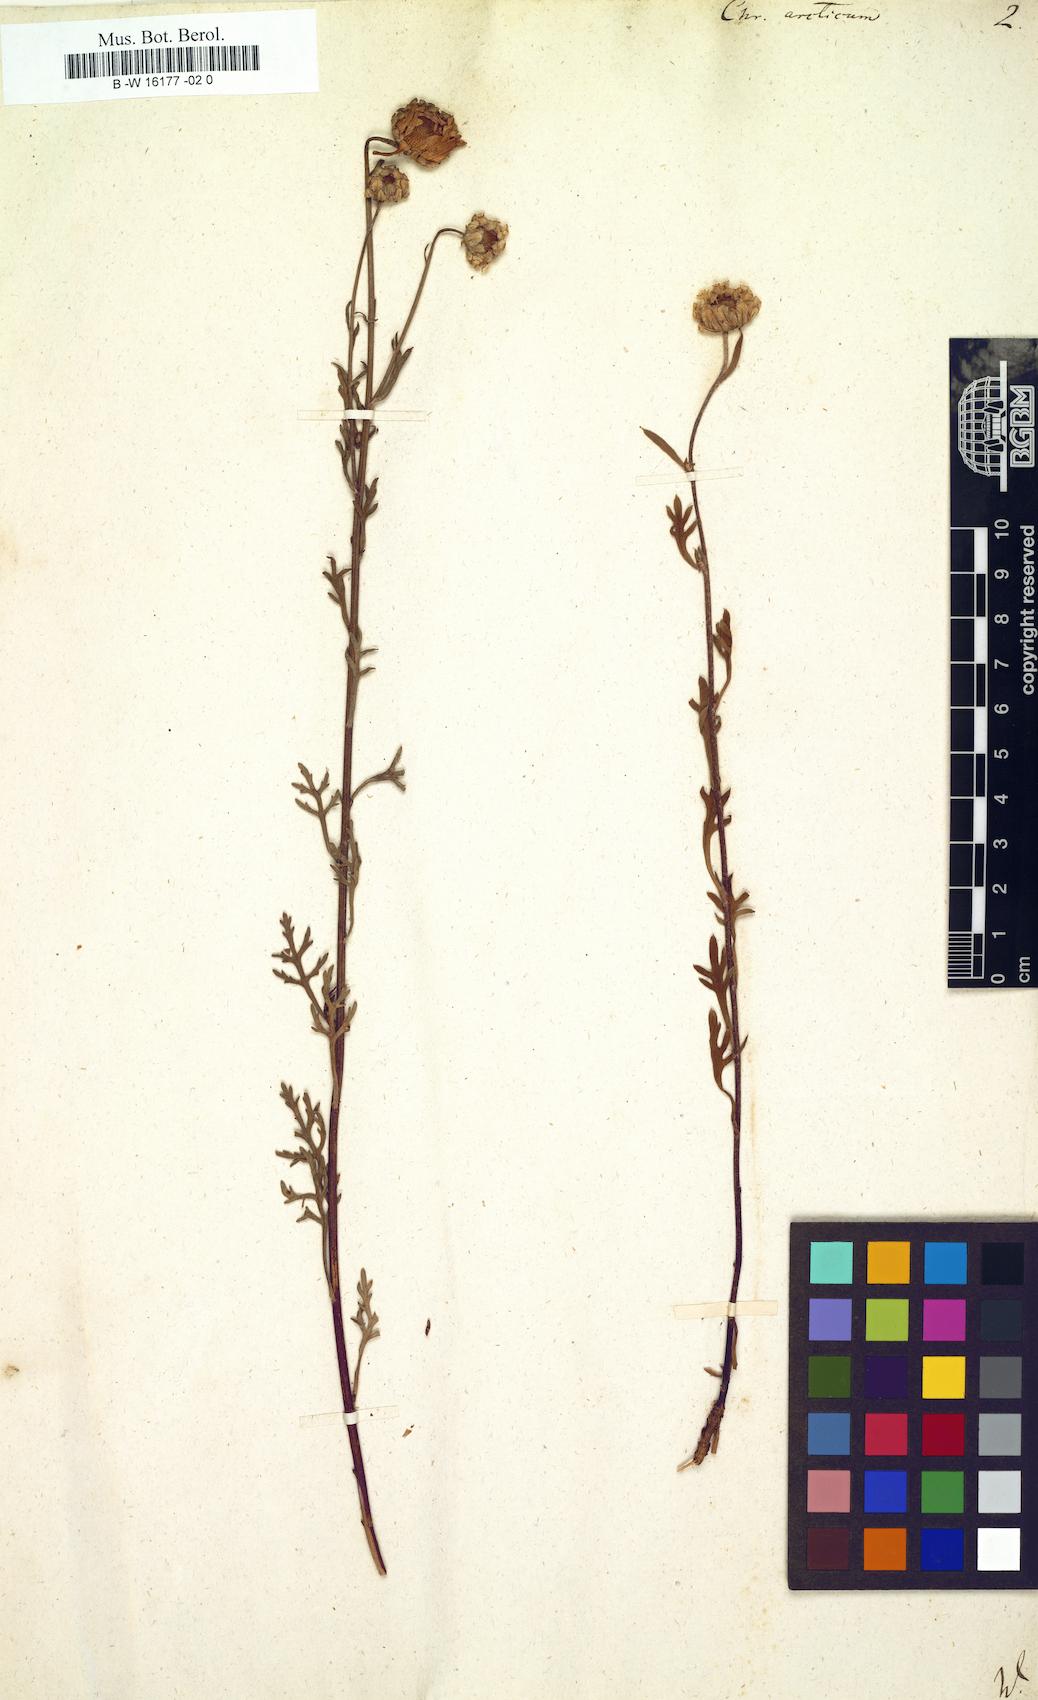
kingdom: Plantae
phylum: Tracheophyta
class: Magnoliopsida
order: Asterales
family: Asteraceae
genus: Arctanthemum
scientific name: Arctanthemum arcticum
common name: Arctic daisy
